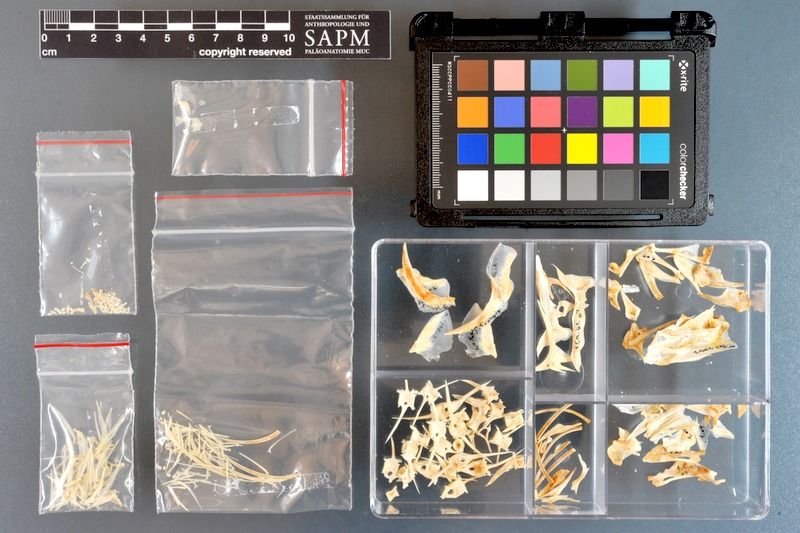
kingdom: Animalia
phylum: Chordata
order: Perciformes
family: Carangidae
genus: Caranx
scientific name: Caranx crysos
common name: Blue runner
